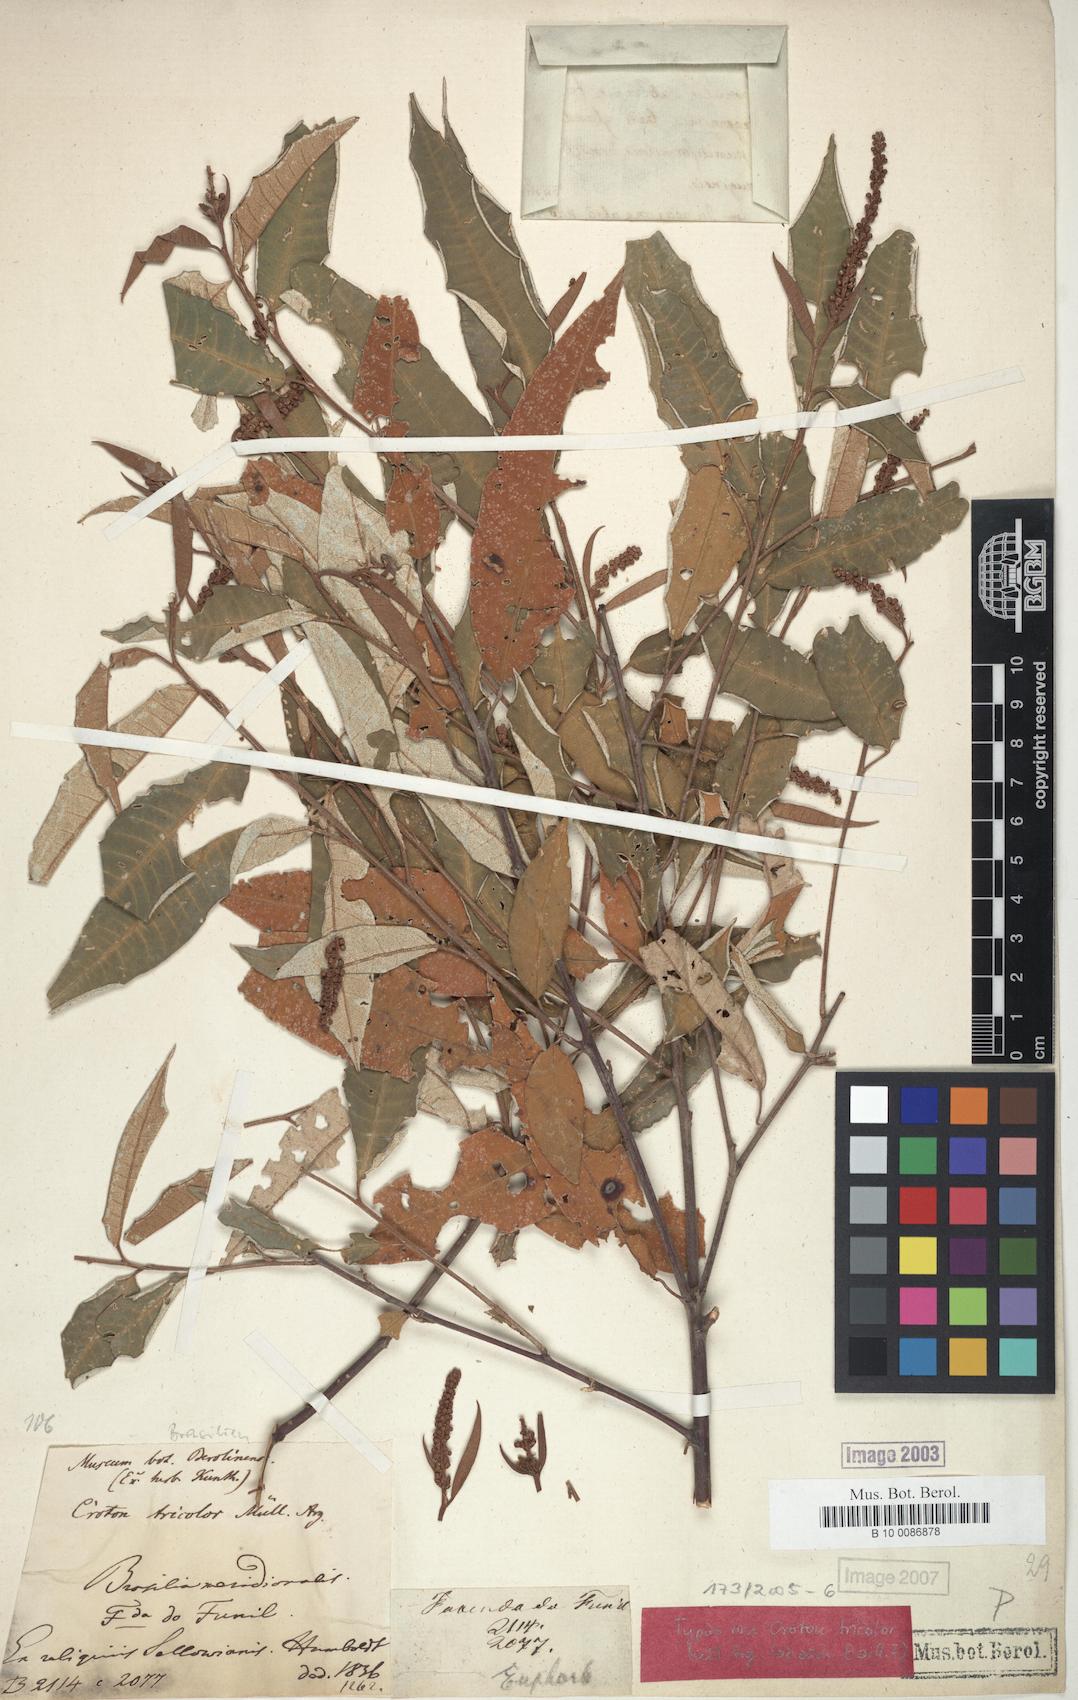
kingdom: Plantae
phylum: Tracheophyta
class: Magnoliopsida
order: Malpighiales
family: Euphorbiaceae
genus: Croton
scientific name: Croton tricolor
